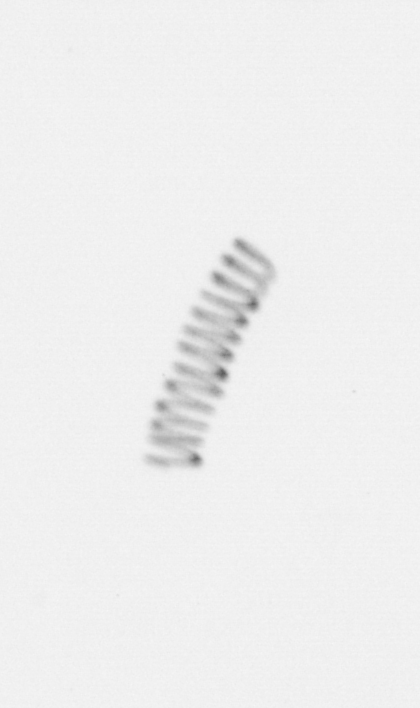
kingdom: Chromista
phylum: Ochrophyta
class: Bacillariophyceae
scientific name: Bacillariophyceae
